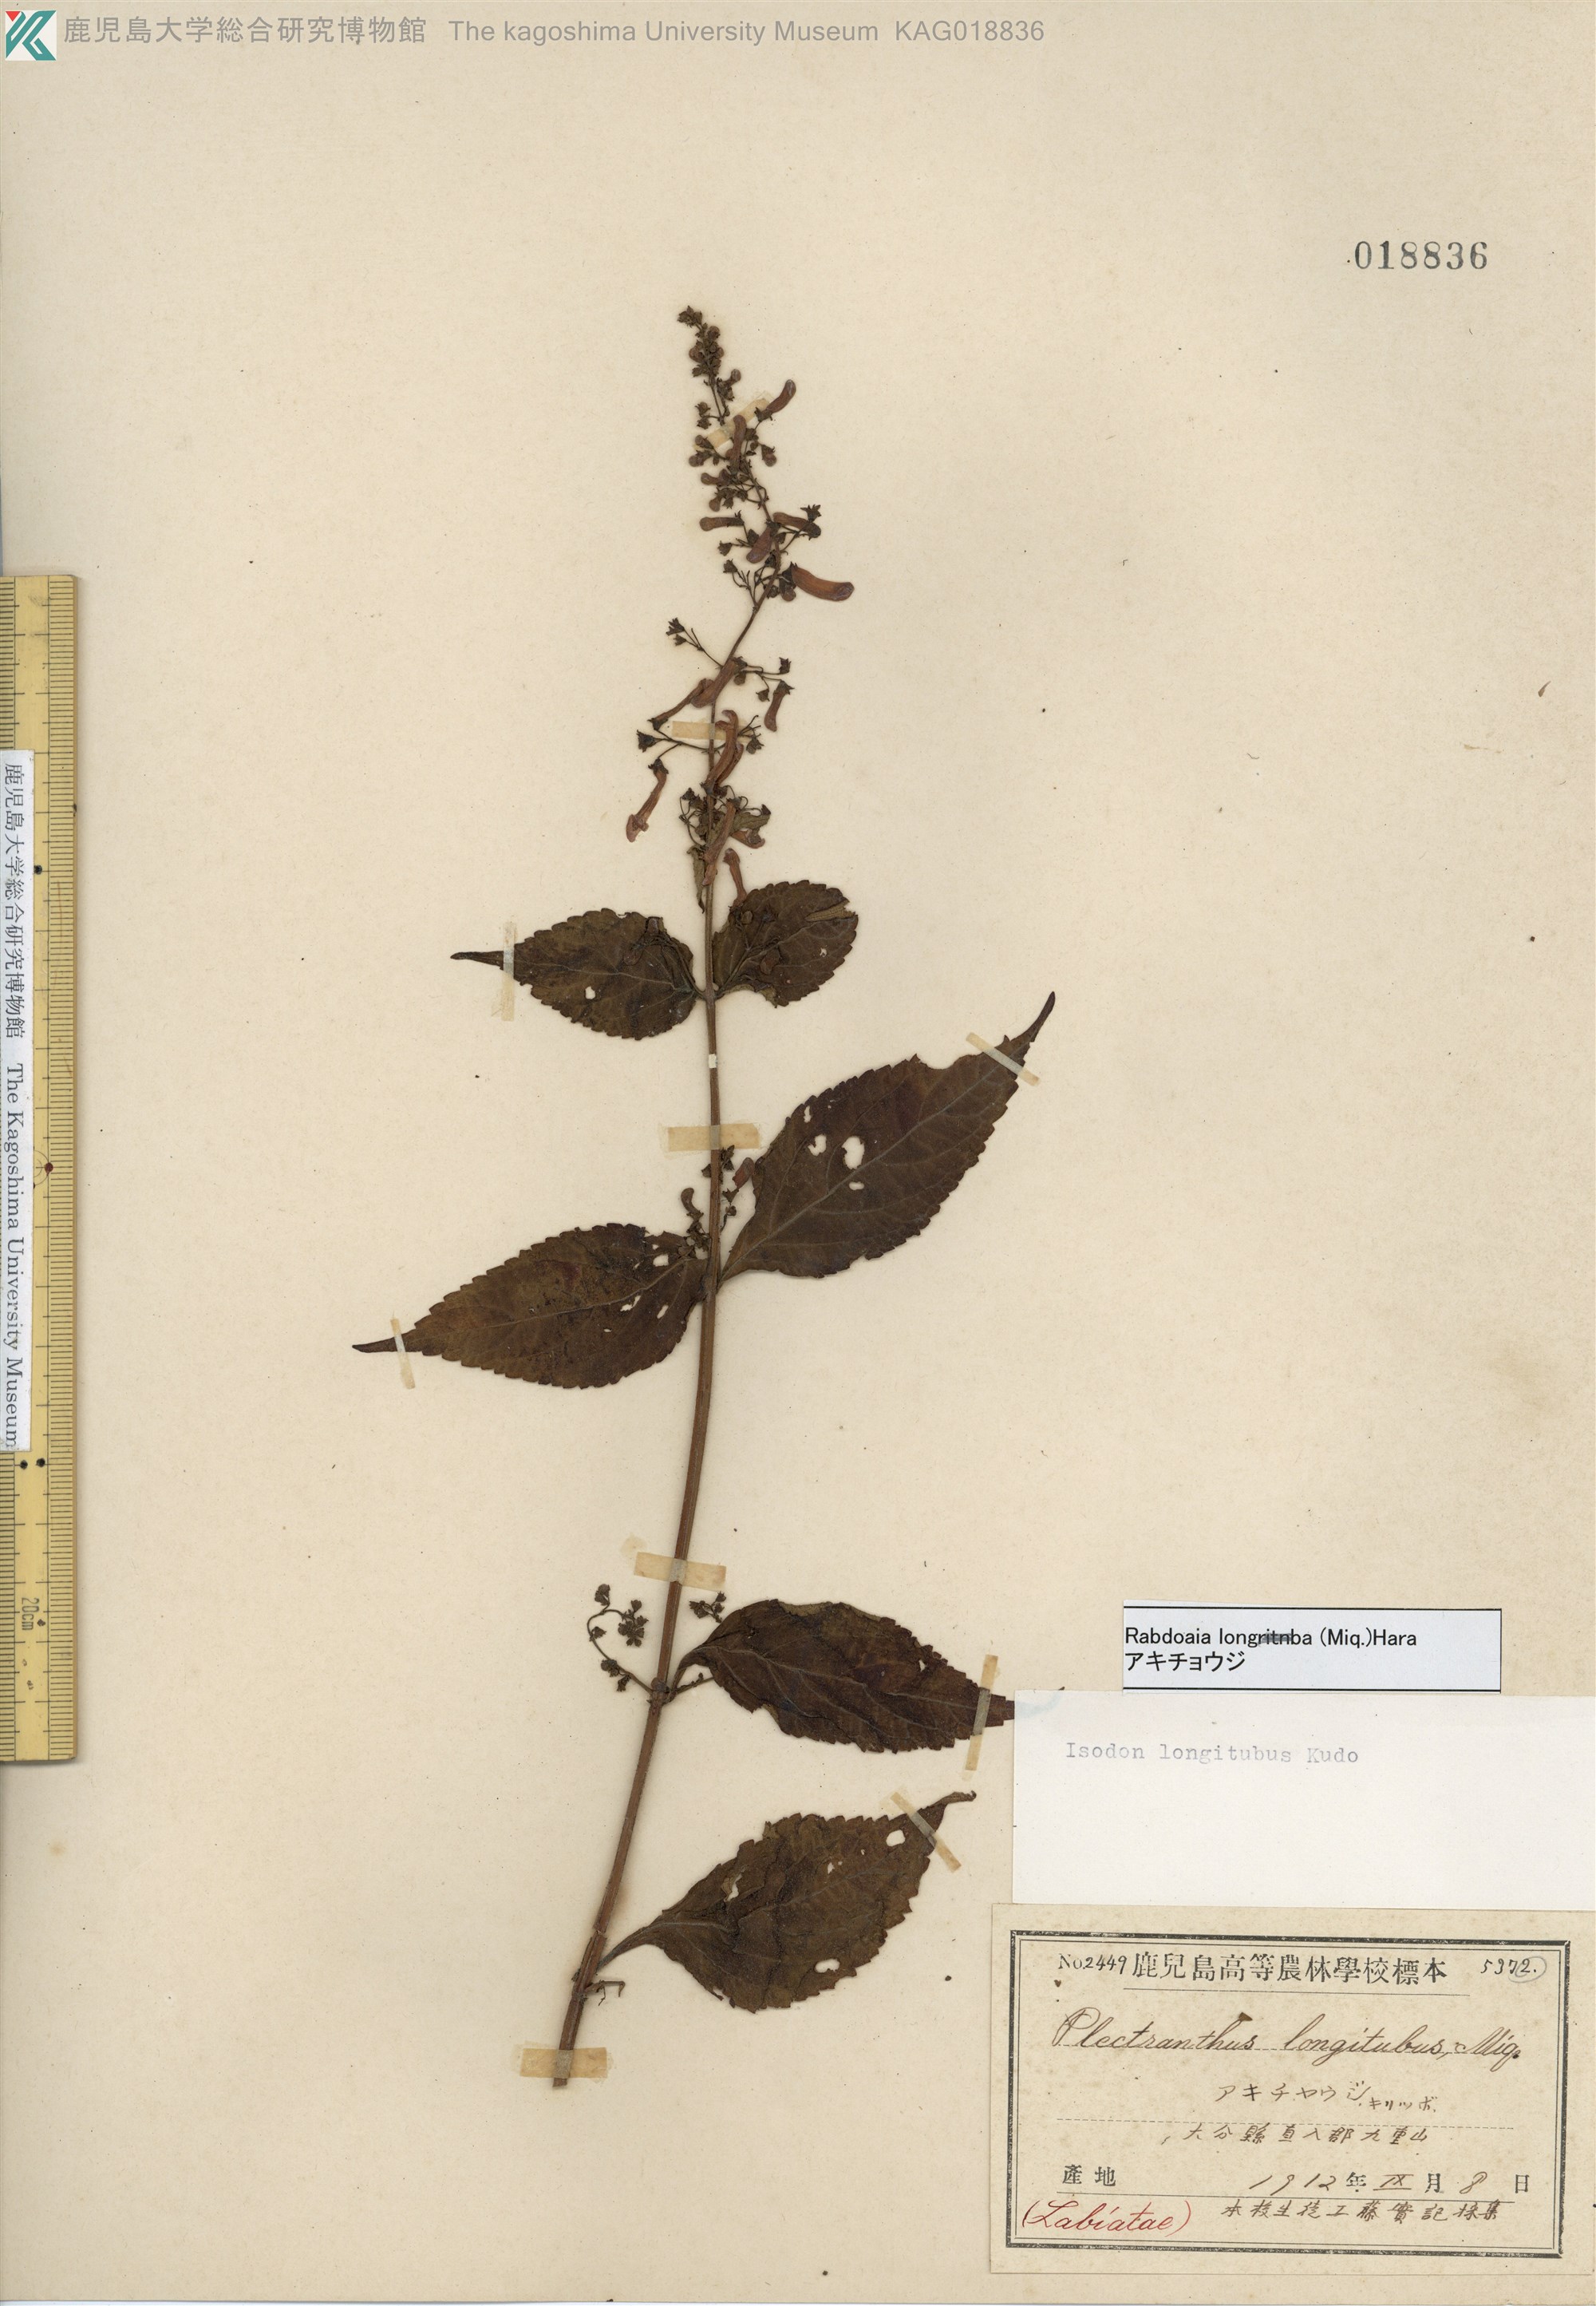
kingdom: Plantae
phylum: Tracheophyta
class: Magnoliopsida
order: Lamiales
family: Lamiaceae
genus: Isodon
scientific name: Isodon longitubus
